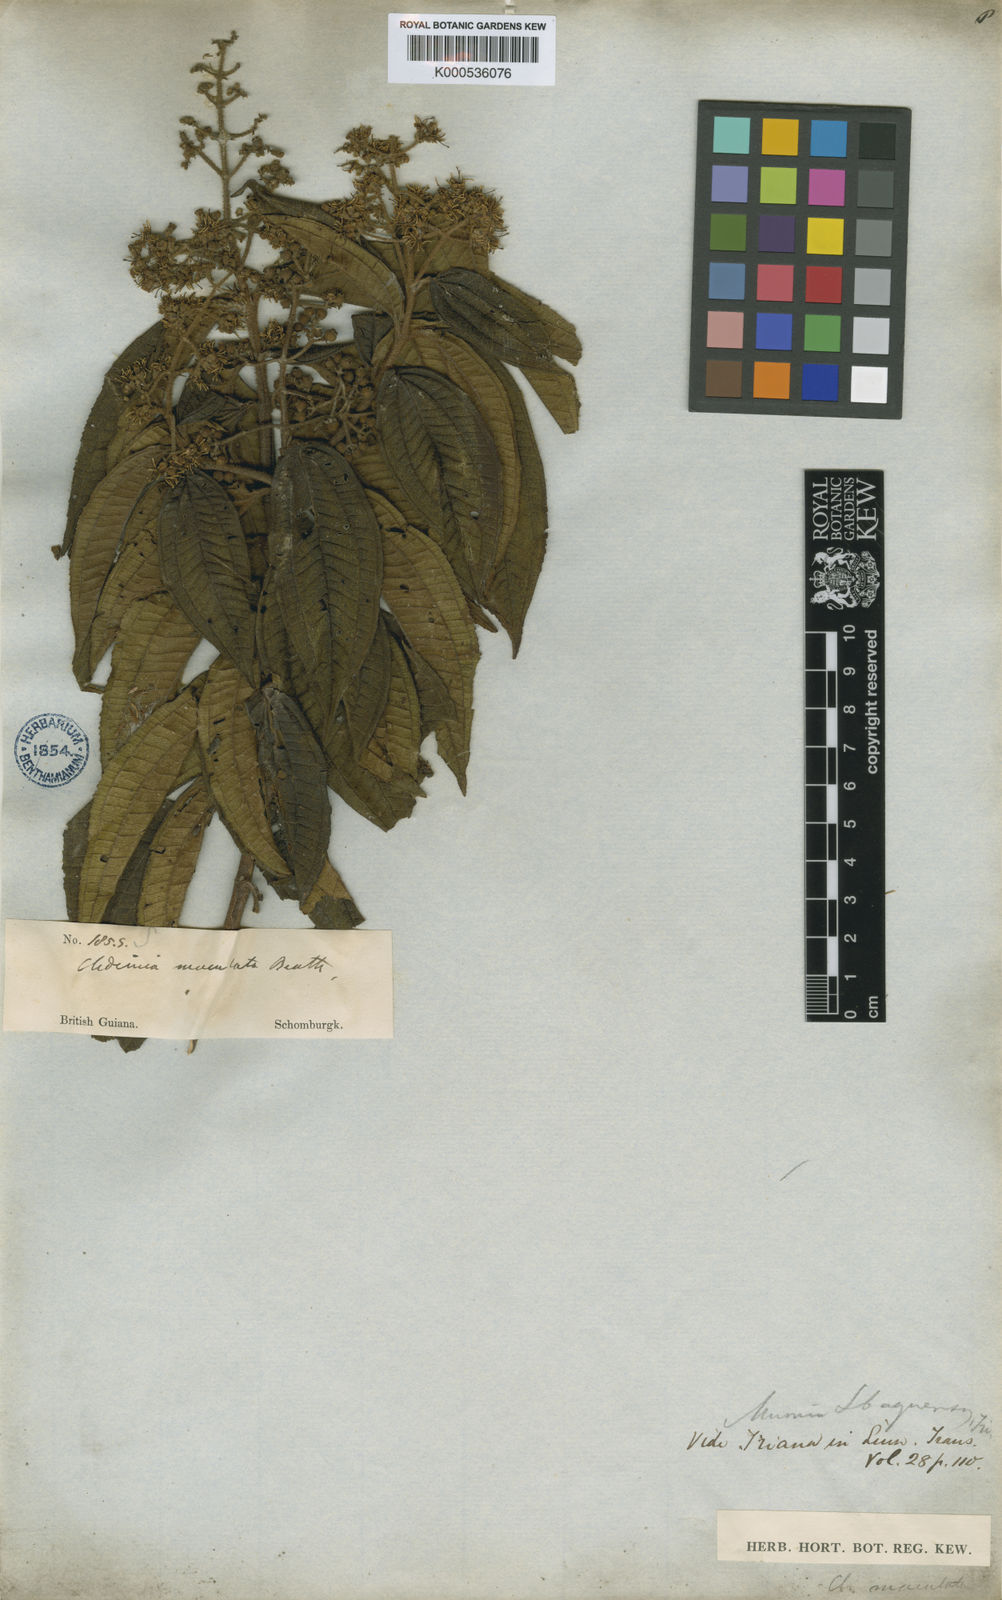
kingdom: Plantae
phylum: Tracheophyta
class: Magnoliopsida
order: Myrtales
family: Melastomataceae
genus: Miconia
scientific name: Miconia ibaguensis
